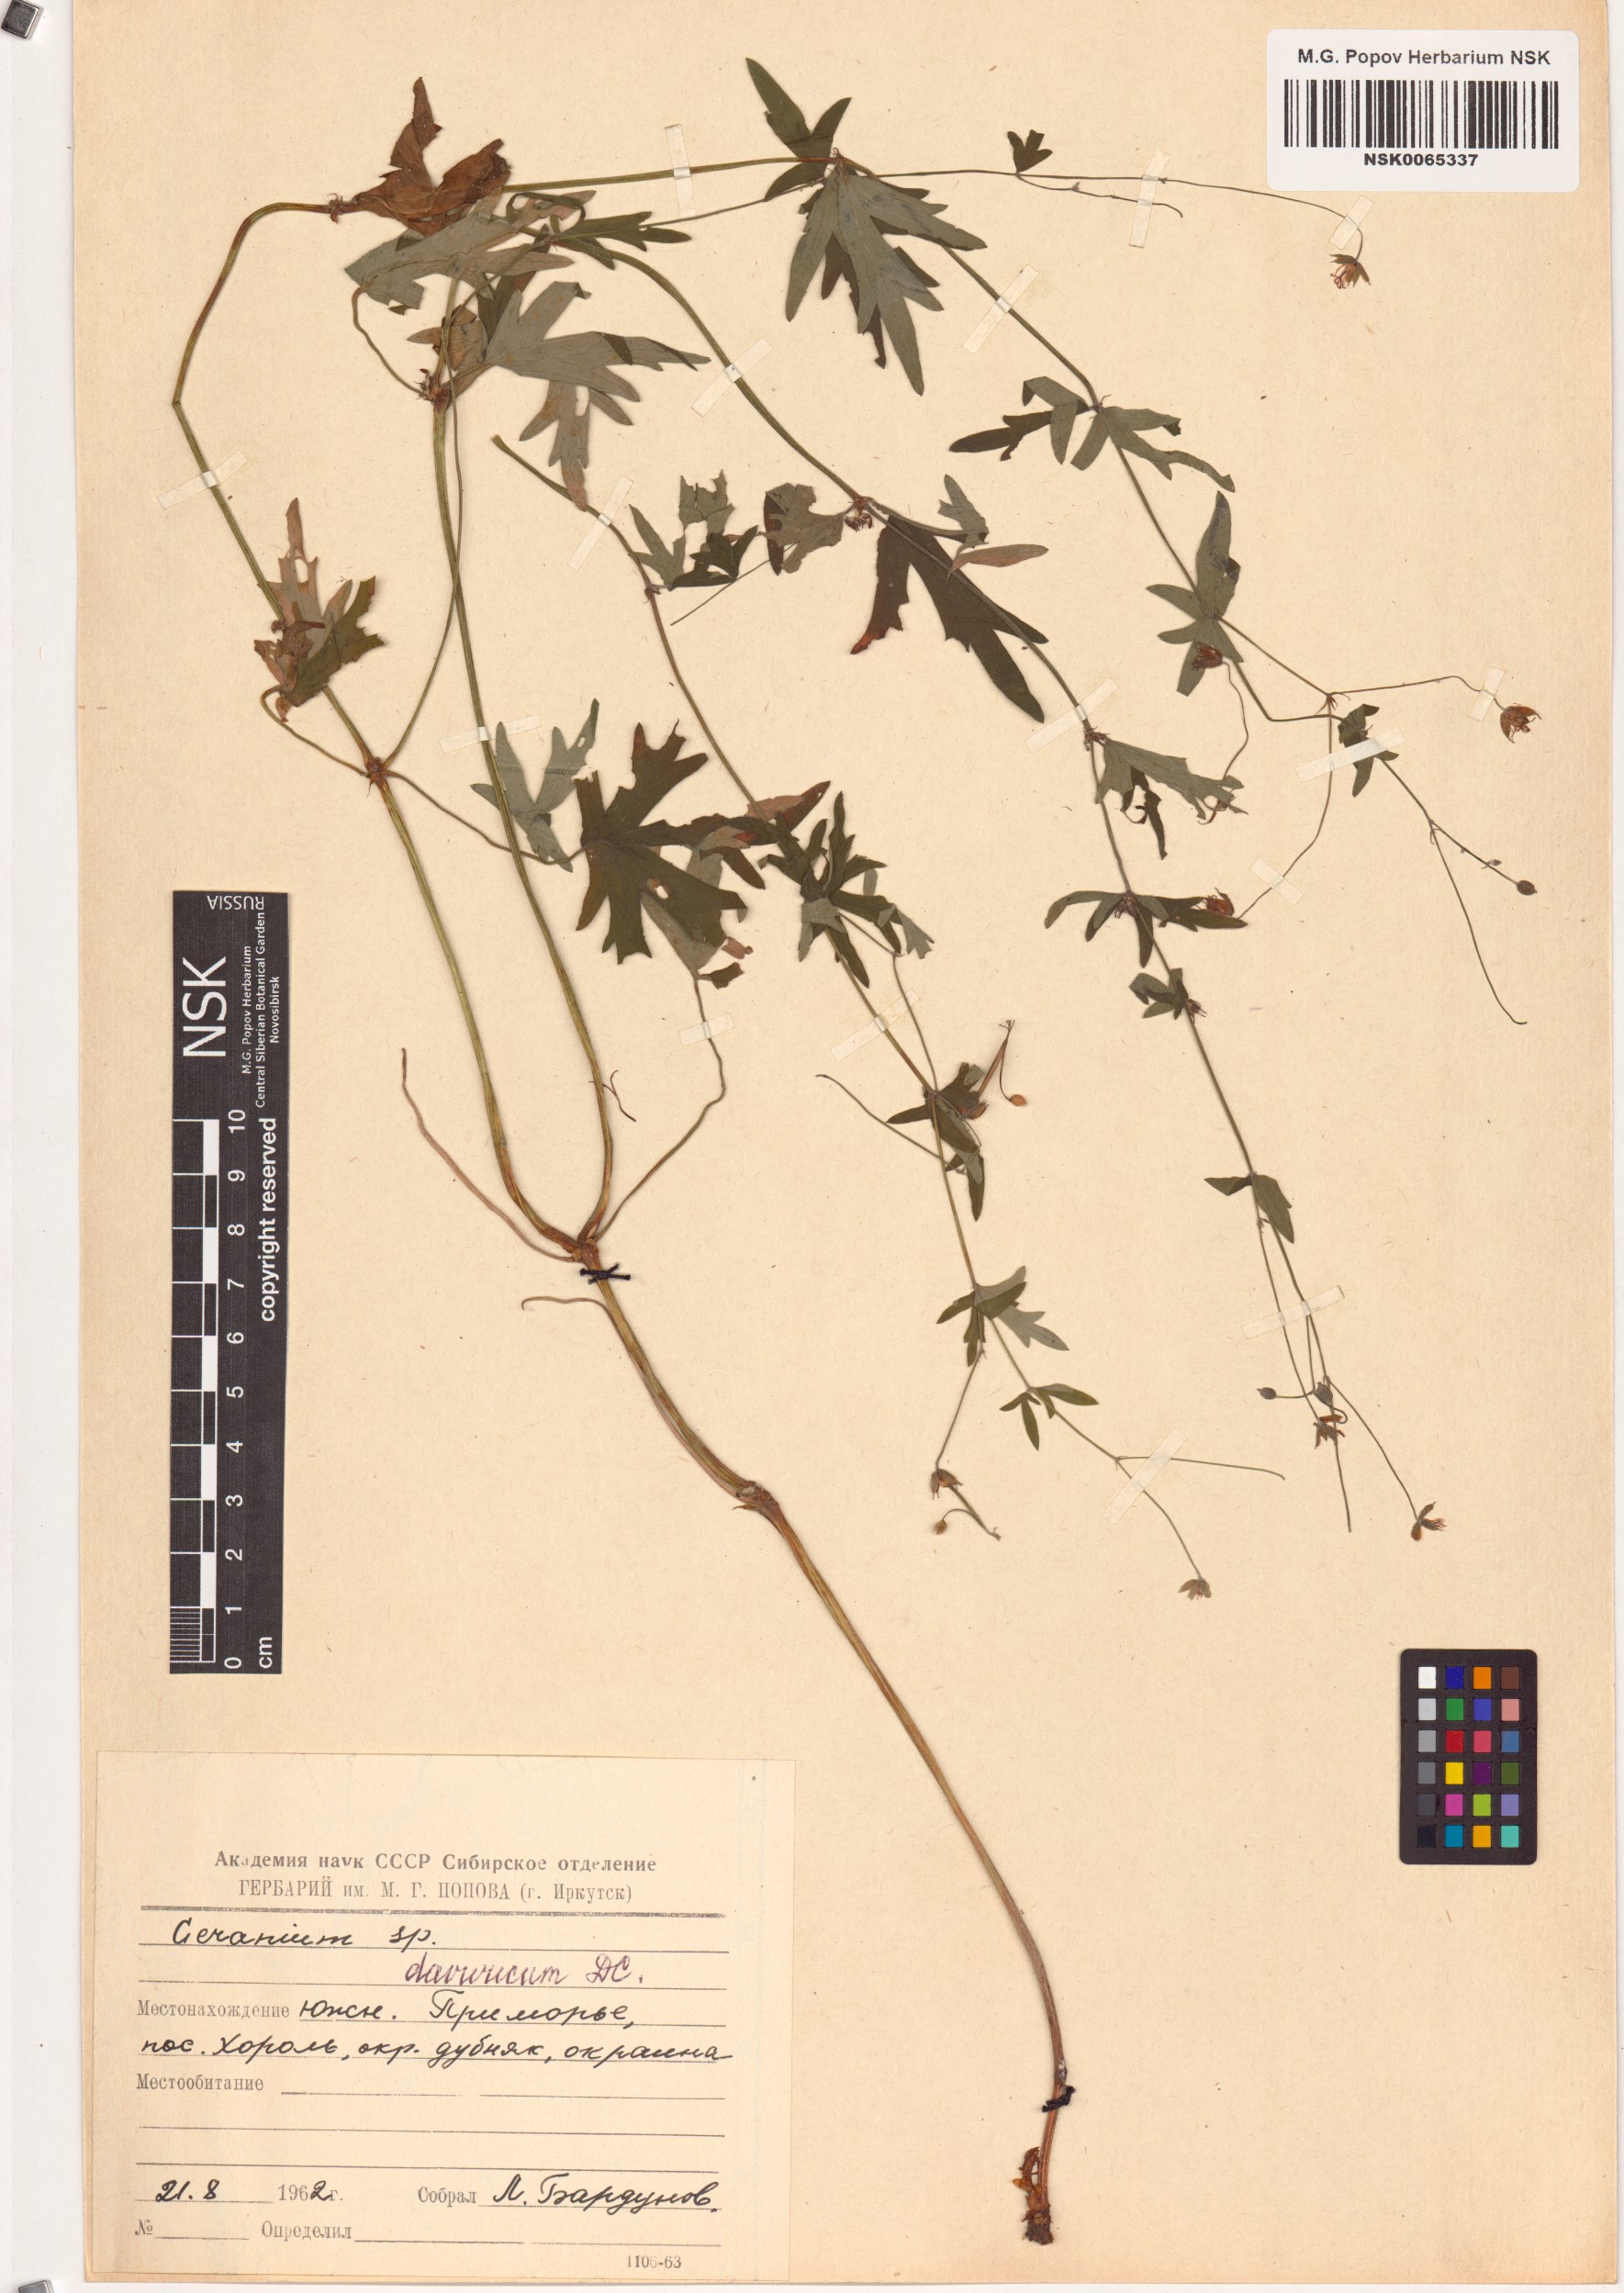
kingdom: Plantae
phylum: Tracheophyta
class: Magnoliopsida
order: Geraniales
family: Geraniaceae
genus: Geranium
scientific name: Geranium dahuricum
